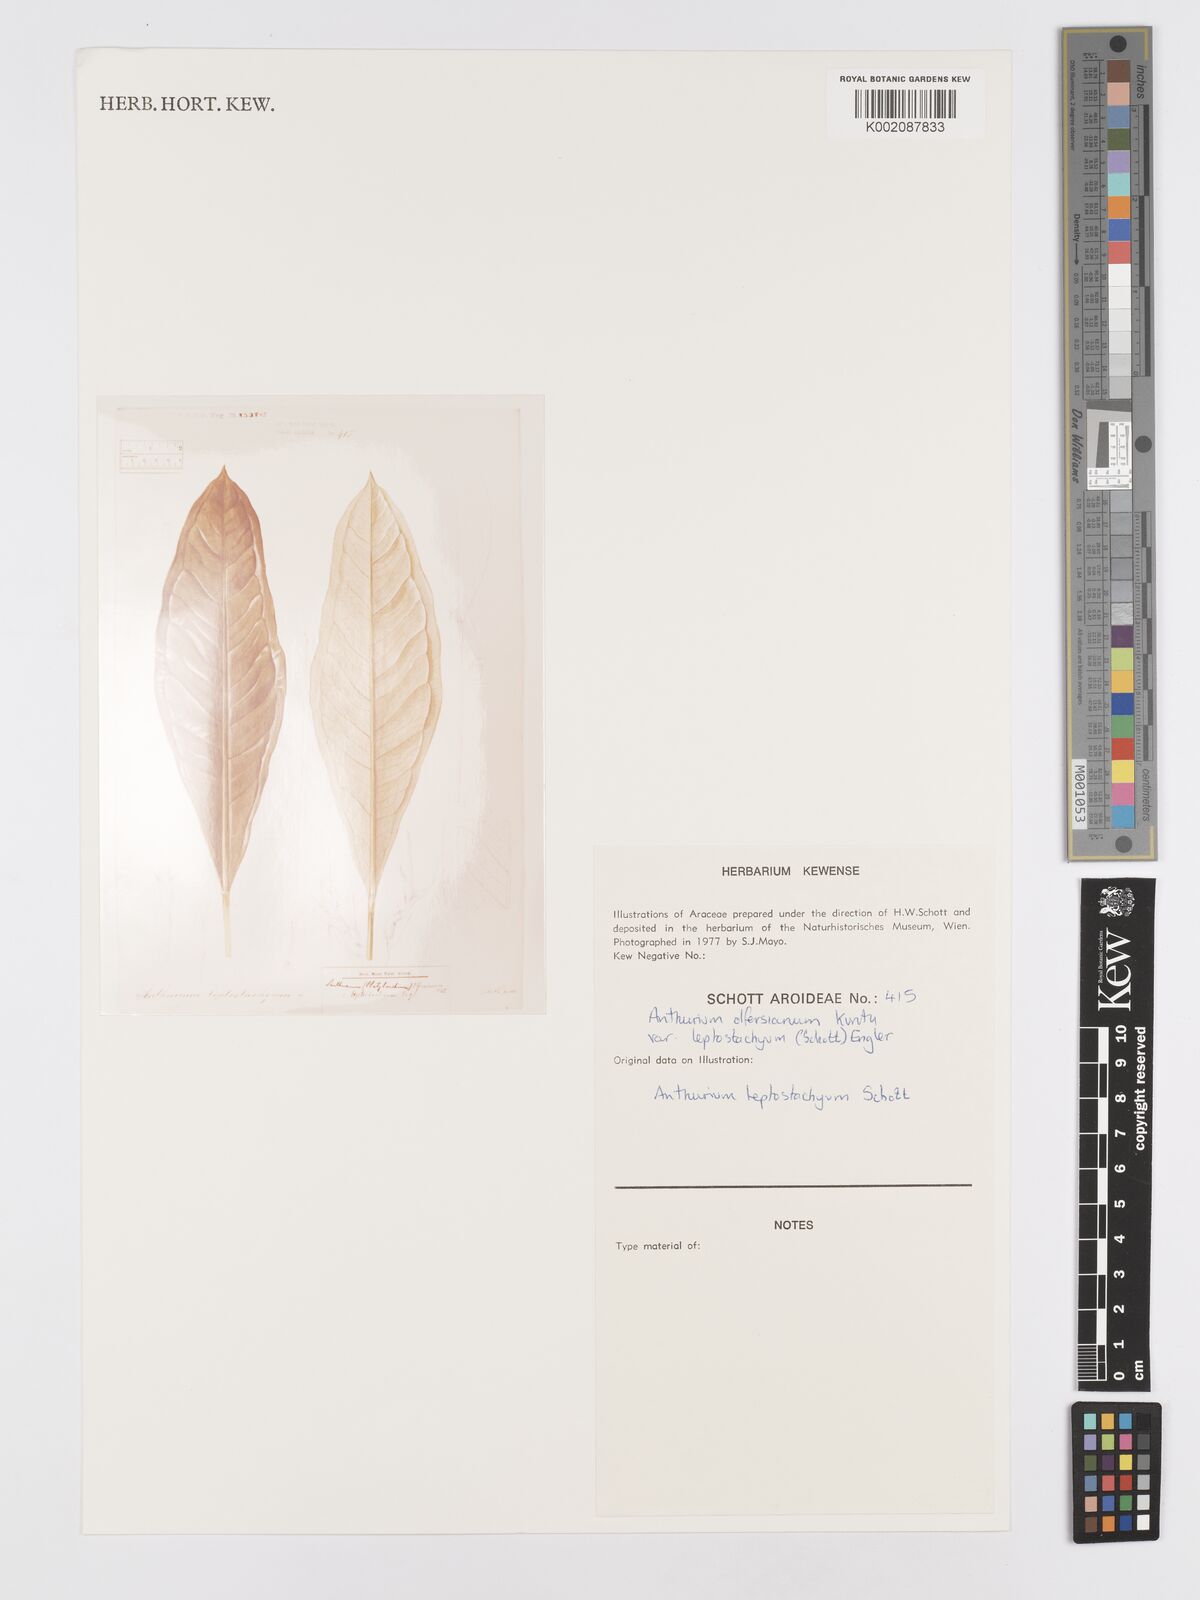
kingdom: Plantae
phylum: Tracheophyta
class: Liliopsida
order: Alismatales
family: Araceae
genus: Anthurium
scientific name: Anthurium intermedium
